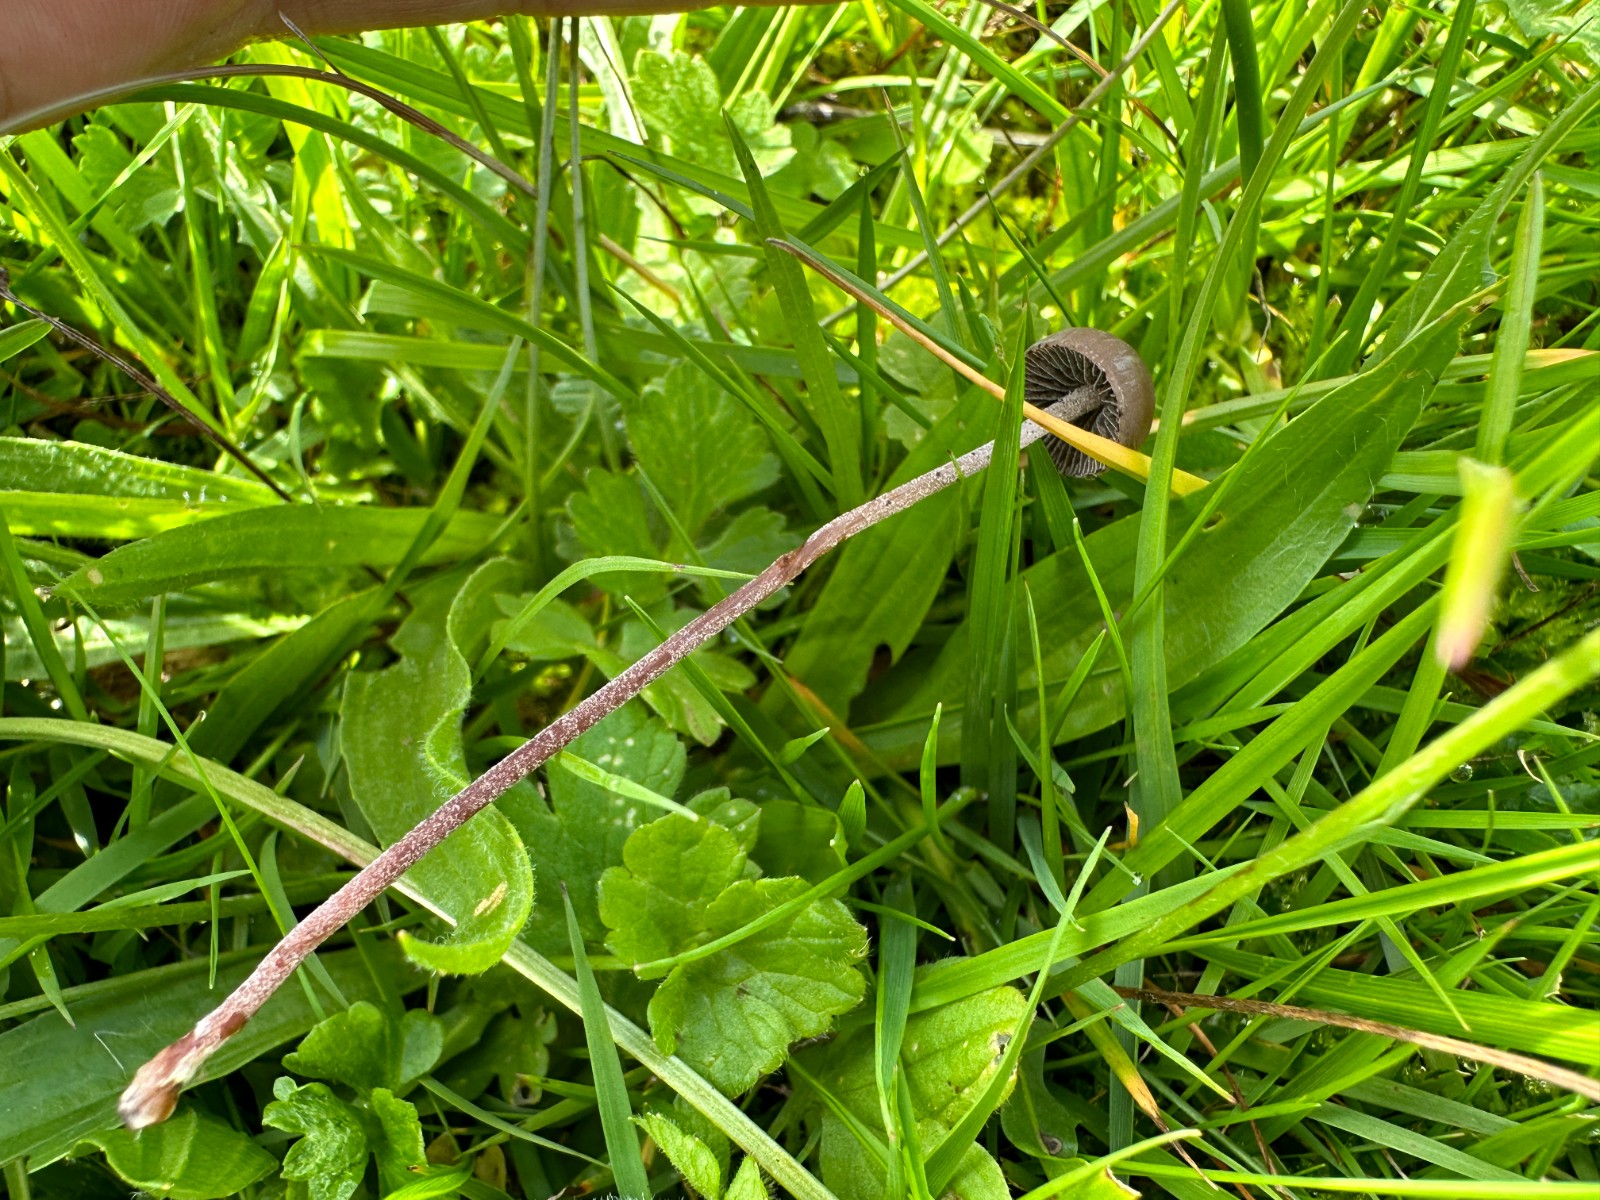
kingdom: Fungi
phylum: Basidiomycota
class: Agaricomycetes
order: Agaricales
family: Bolbitiaceae
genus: Panaeolus
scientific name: Panaeolus acuminatus
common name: høj glanshat
